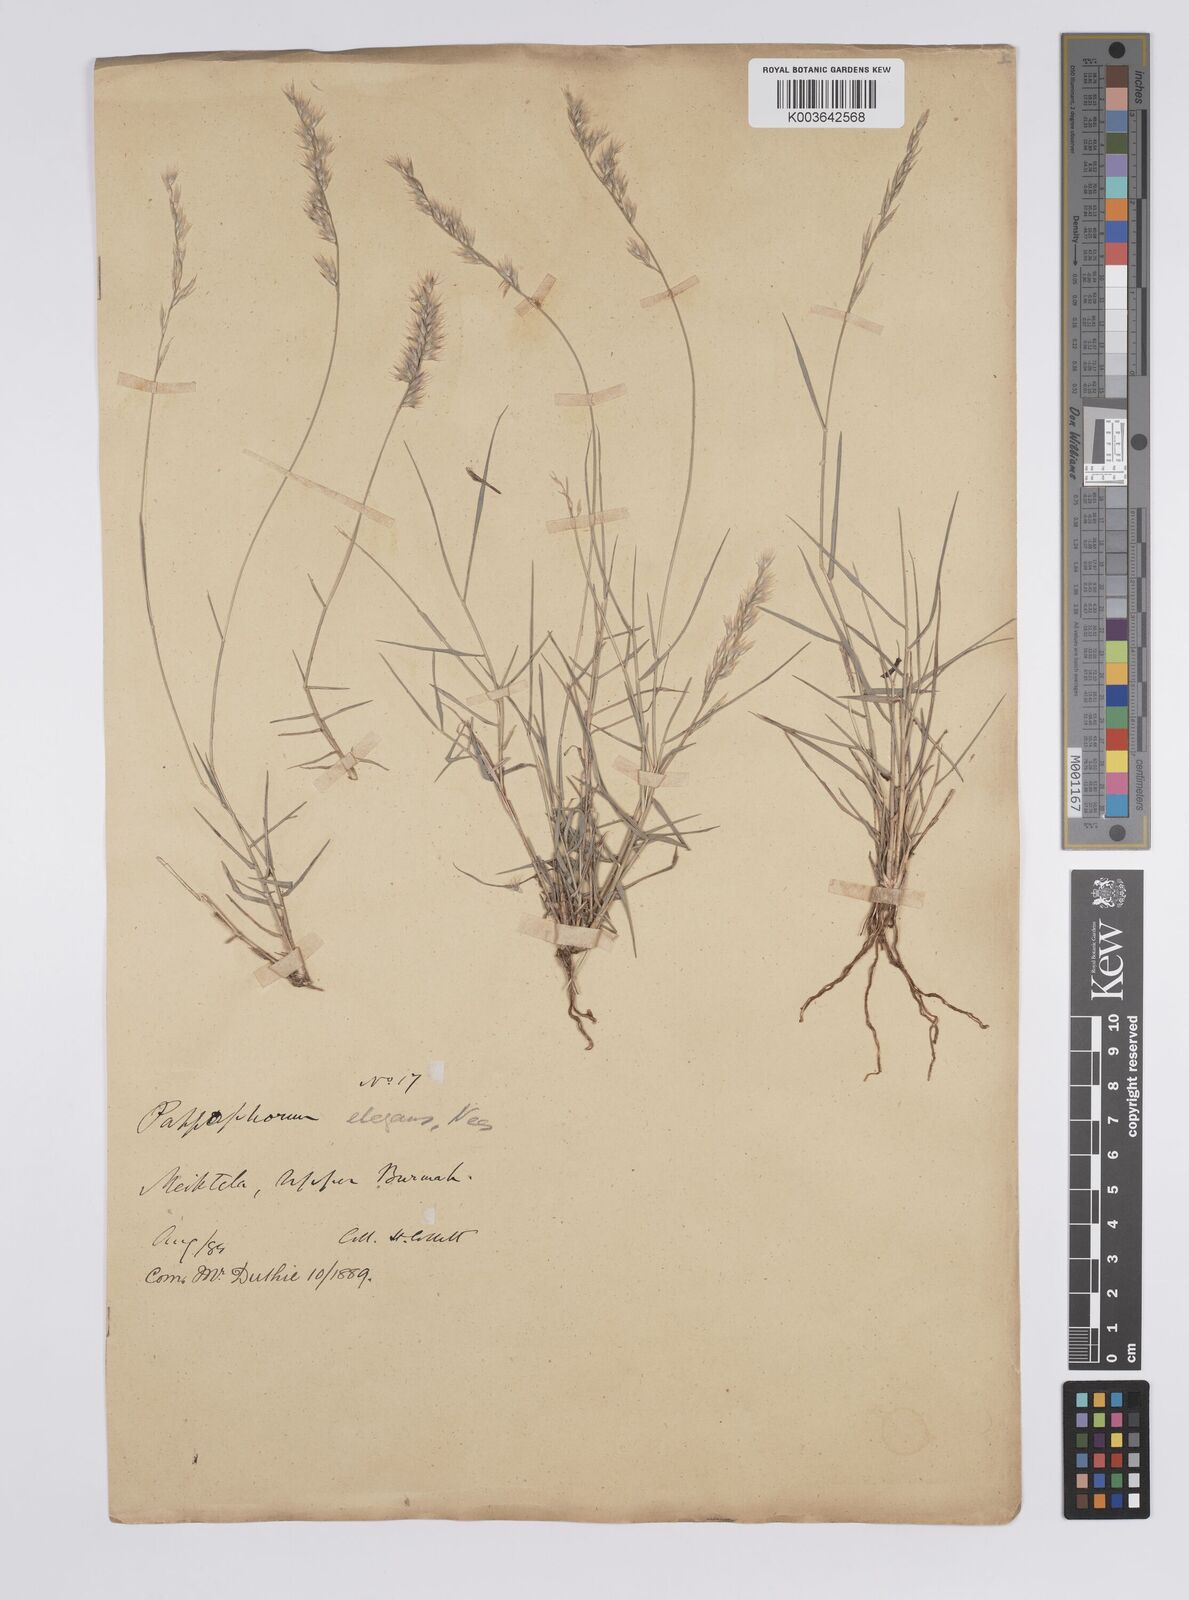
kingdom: Plantae
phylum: Tracheophyta
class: Liliopsida
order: Poales
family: Poaceae
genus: Enneapogon
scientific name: Enneapogon persicus
